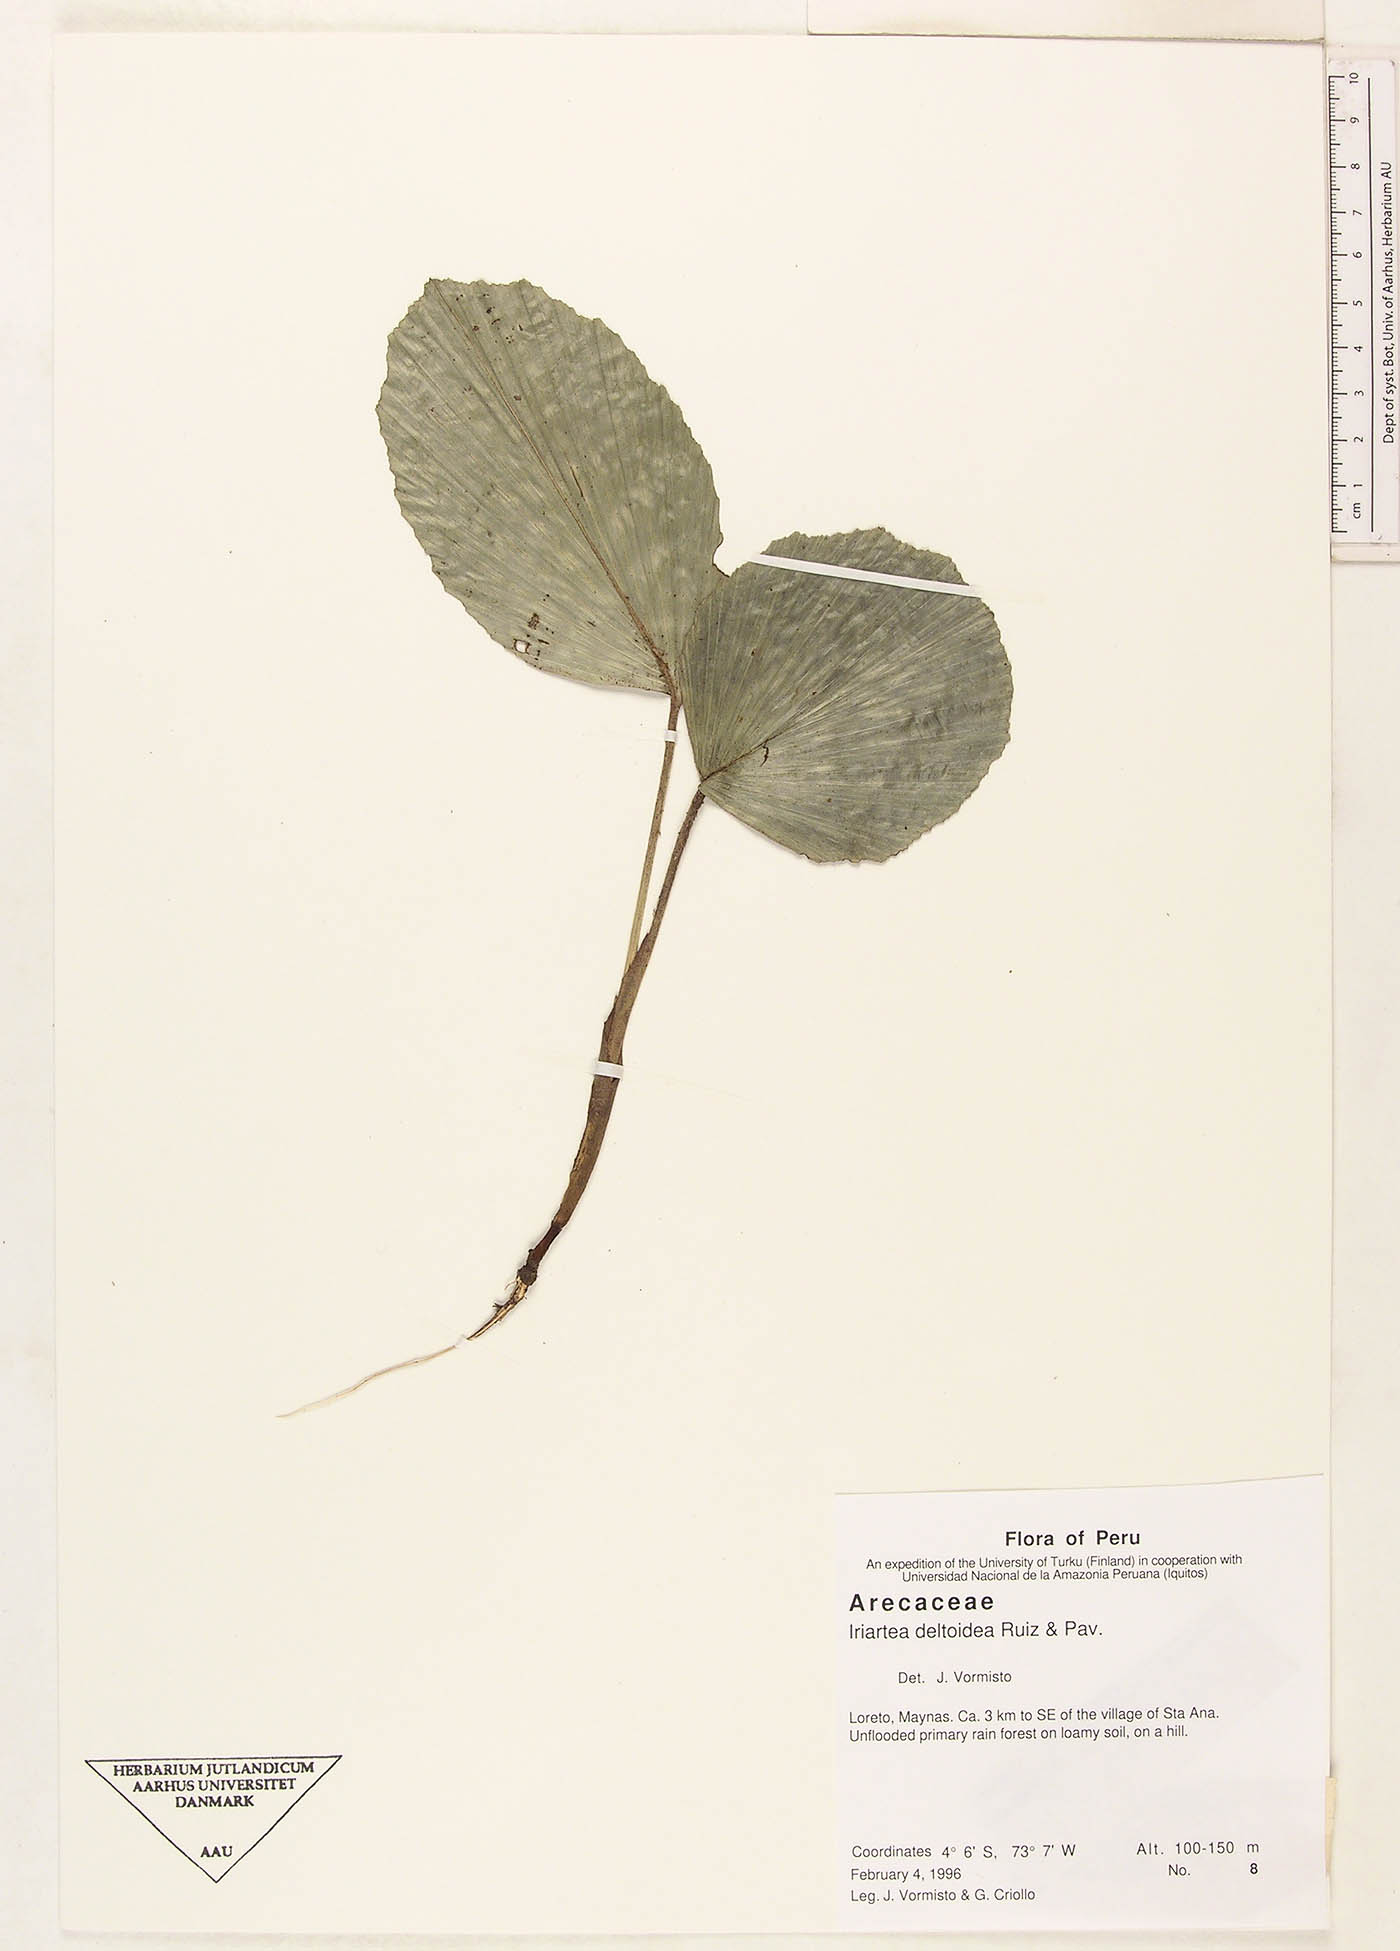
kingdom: Plantae
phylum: Tracheophyta
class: Liliopsida
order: Arecales
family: Arecaceae
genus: Iriartea
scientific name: Iriartea deltoidea
